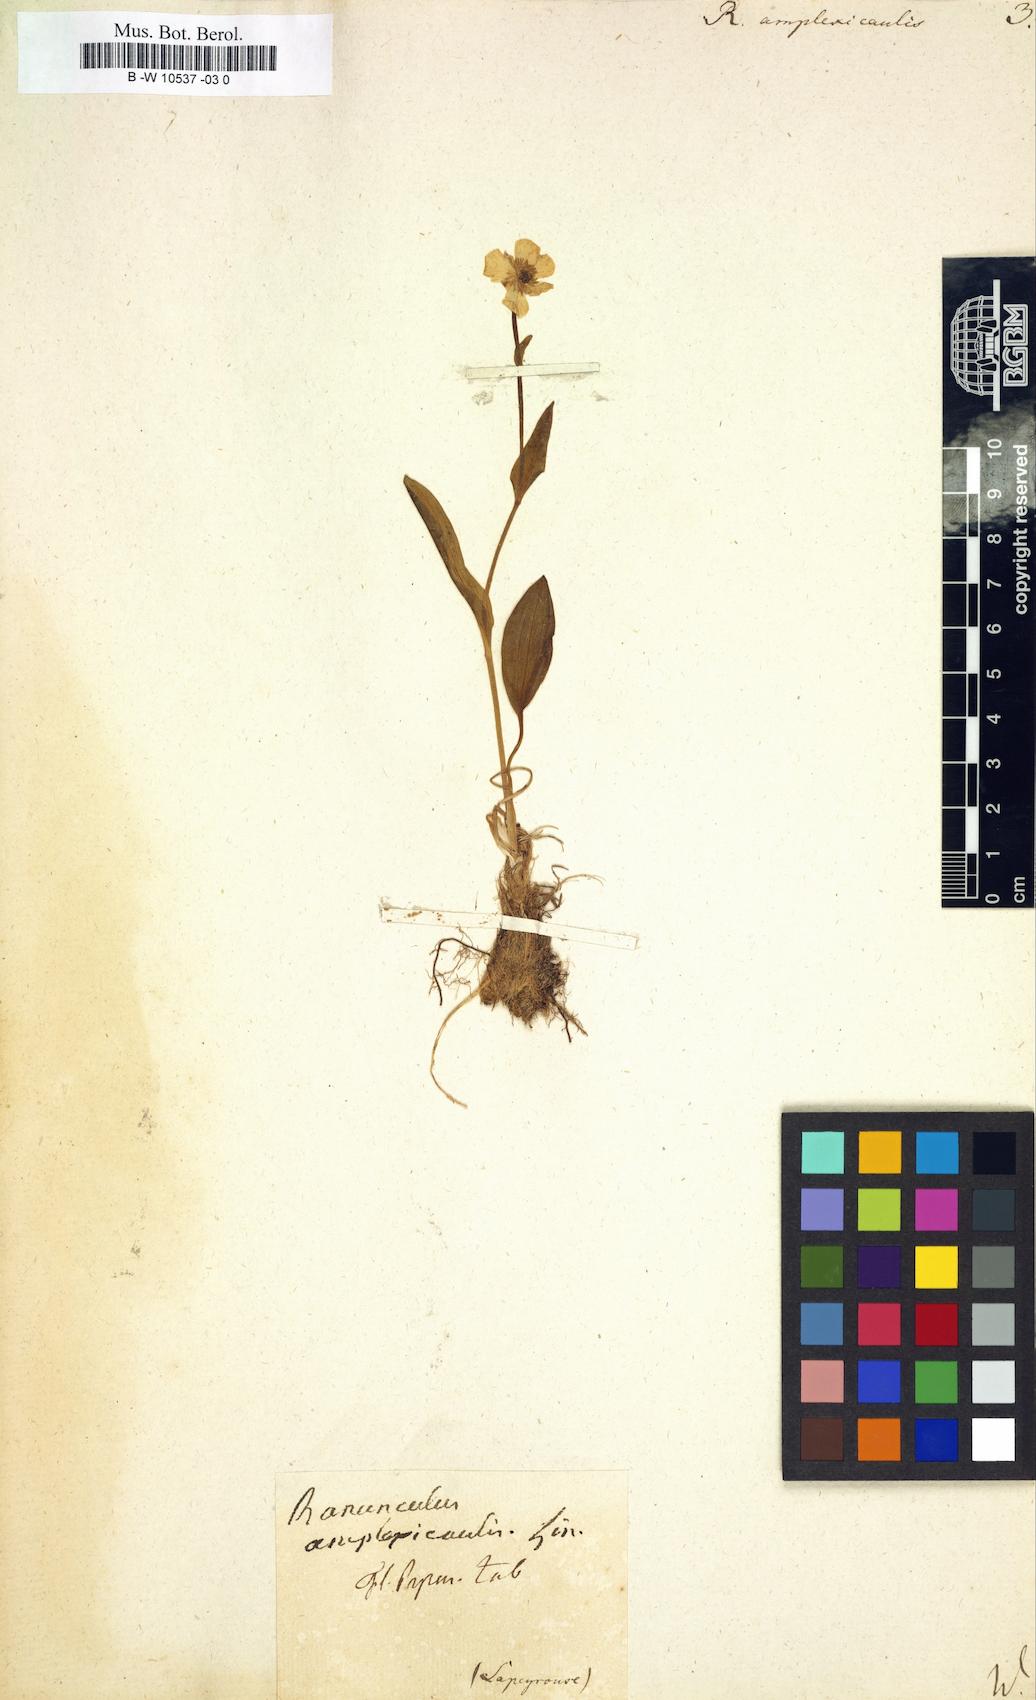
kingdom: Plantae
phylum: Tracheophyta
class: Magnoliopsida
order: Ranunculales
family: Ranunculaceae
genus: Ranunculus
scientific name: Ranunculus amplexicaulis
